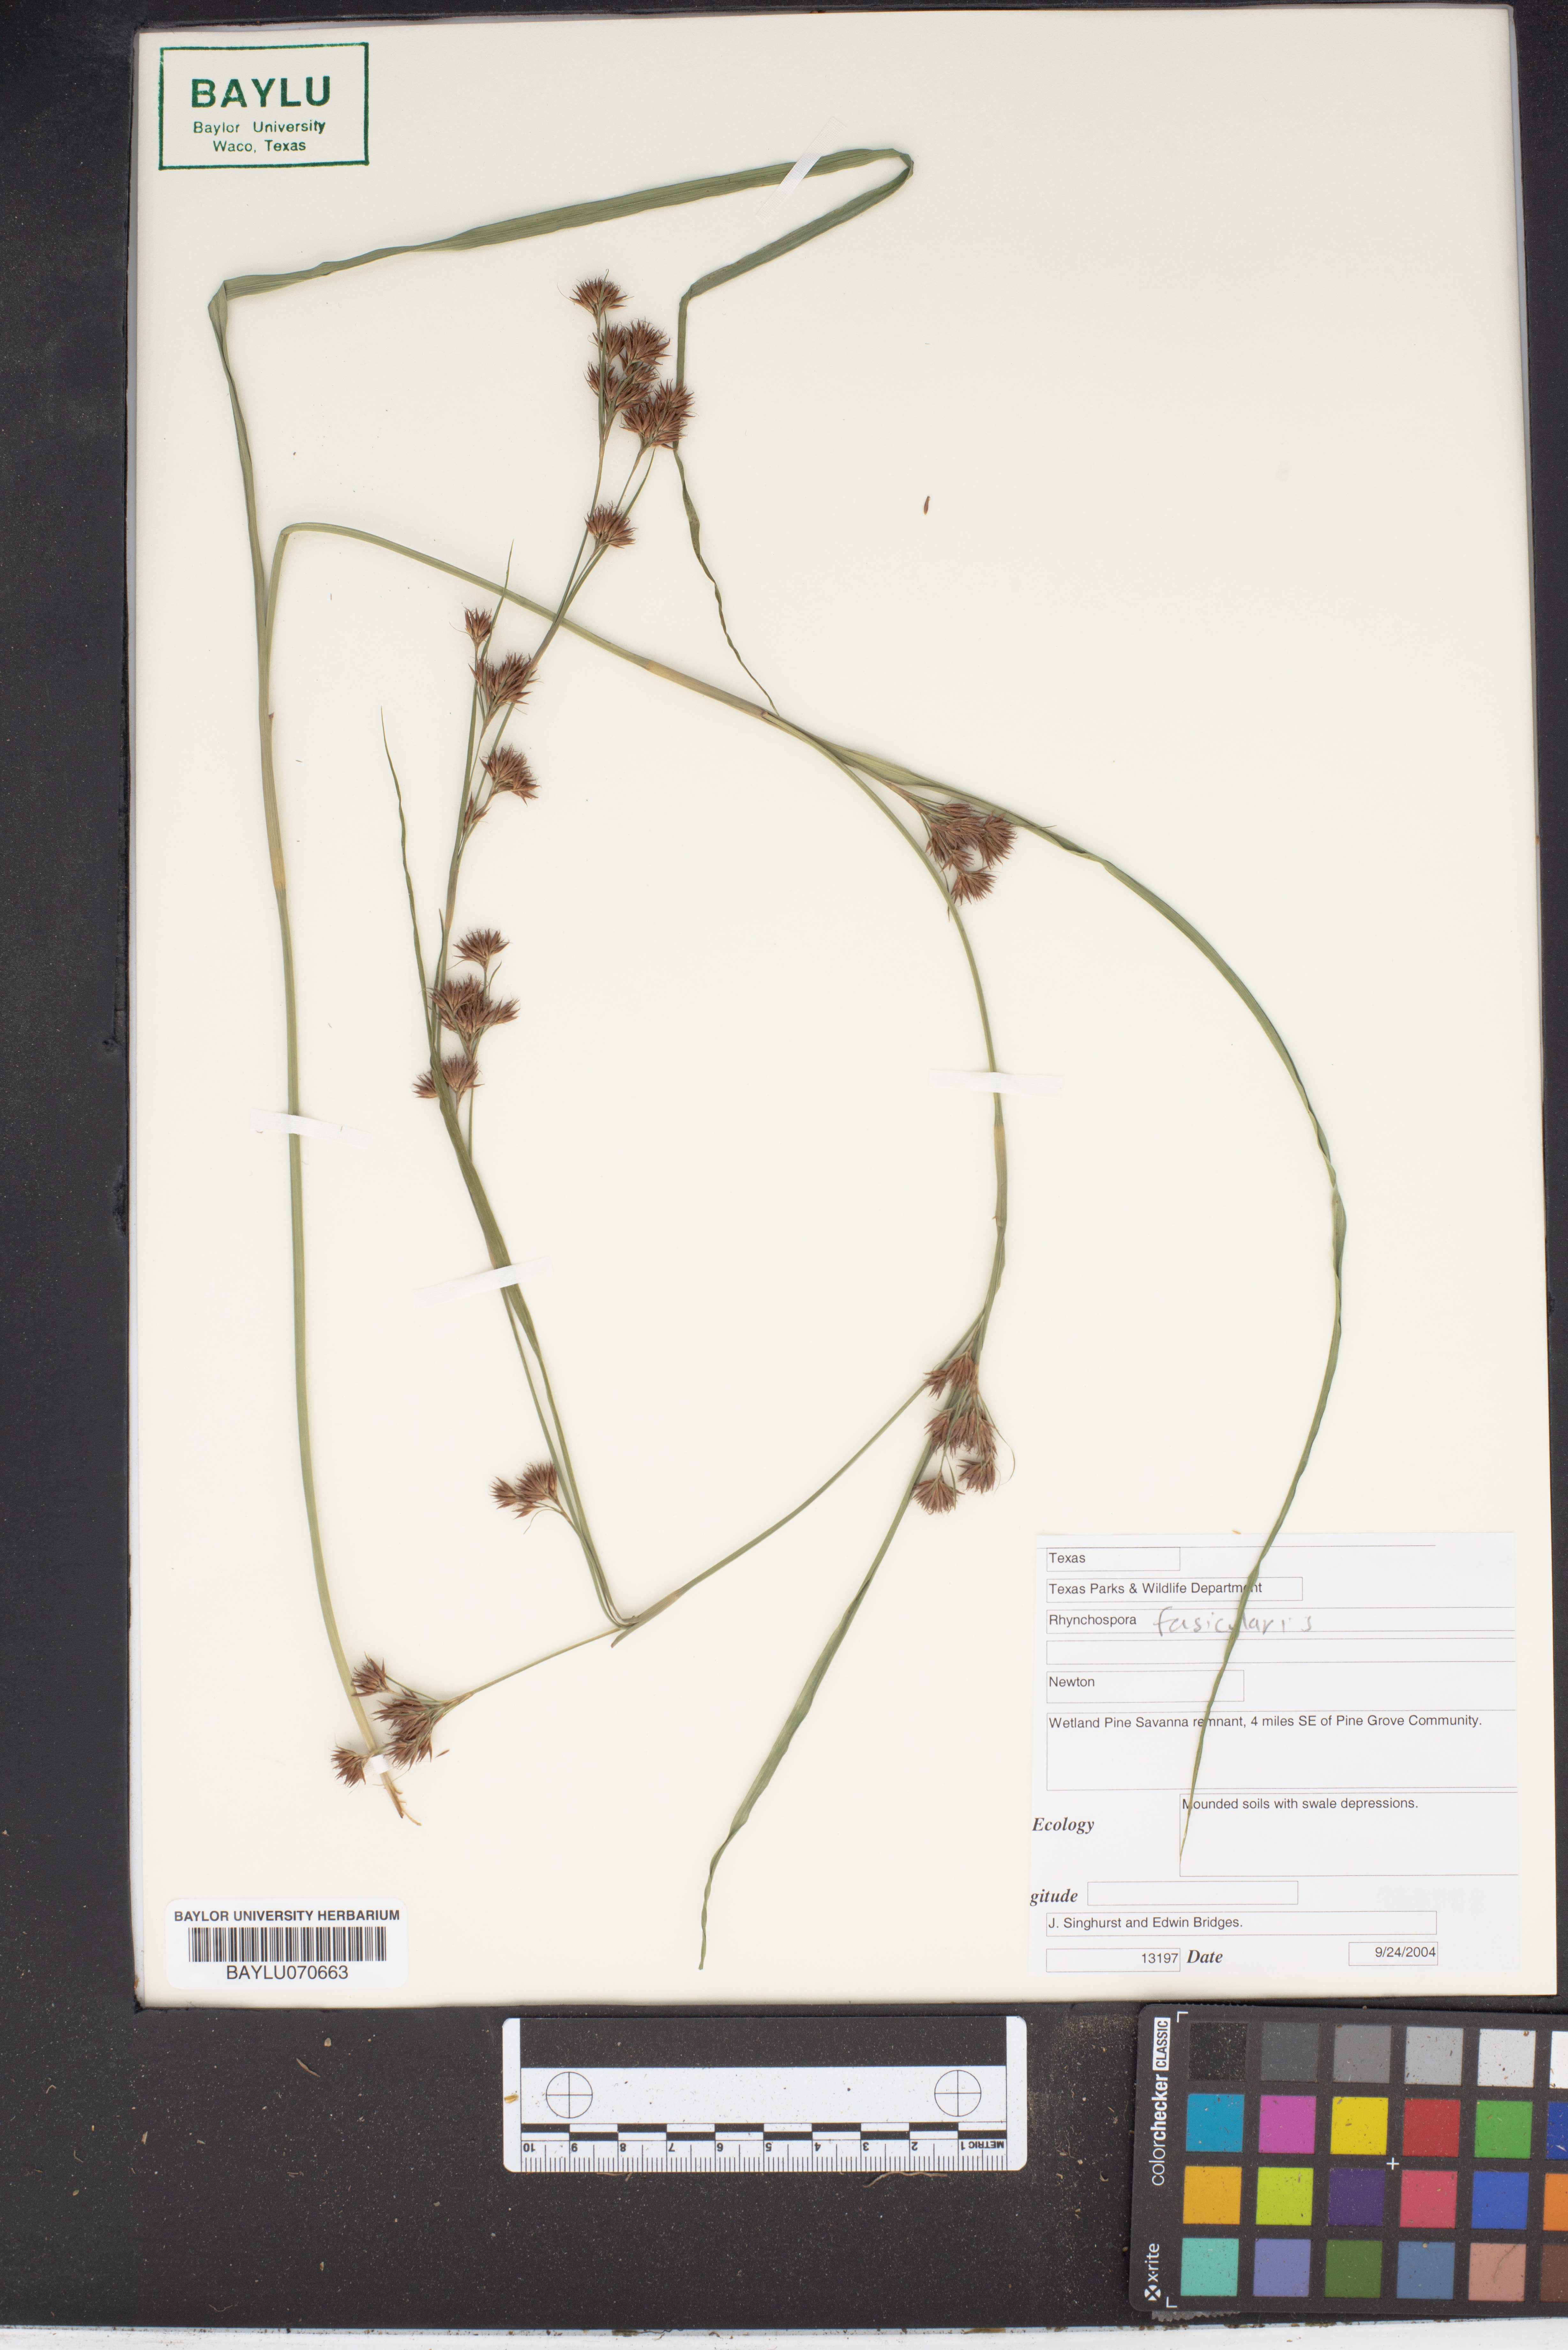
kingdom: Plantae
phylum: Tracheophyta
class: Liliopsida
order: Poales
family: Cyperaceae
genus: Rhynchospora
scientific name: Rhynchospora fascicularis
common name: Fascicled beak sedge
